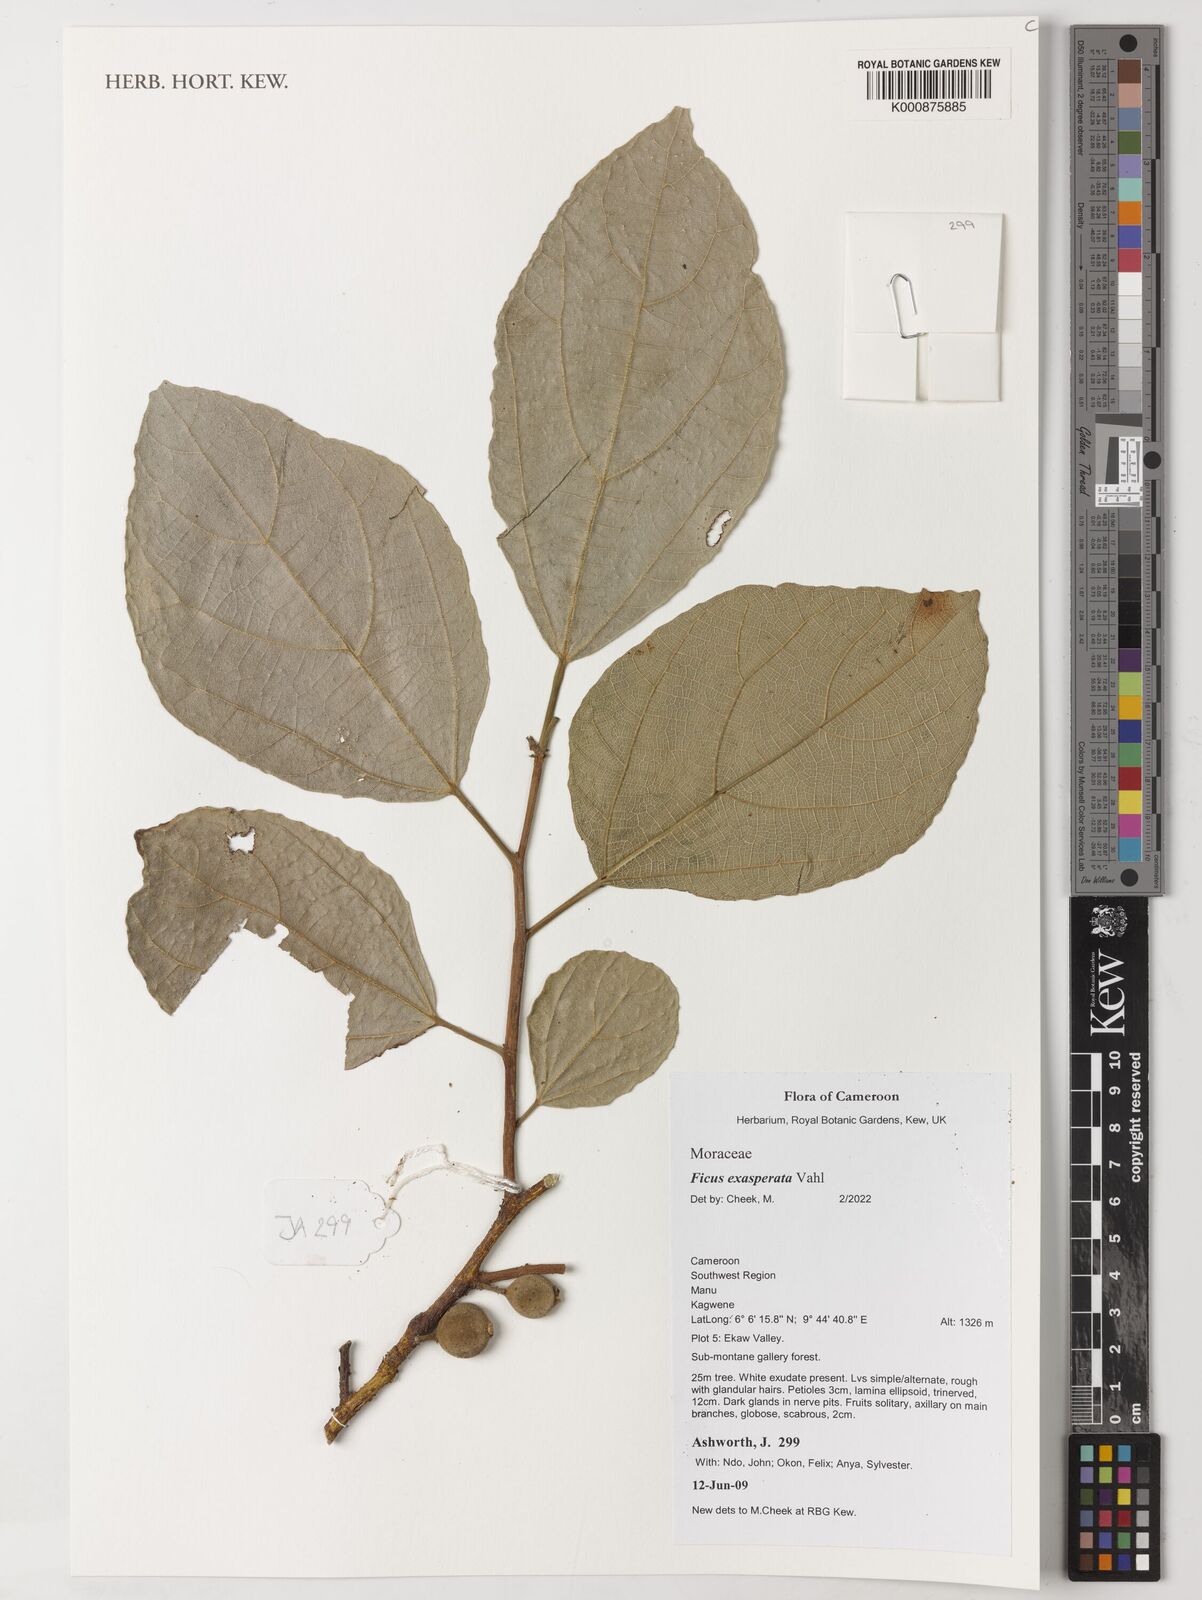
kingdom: Plantae
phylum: Tracheophyta
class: Magnoliopsida
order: Rosales
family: Moraceae
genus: Ficus
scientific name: Ficus exasperata
